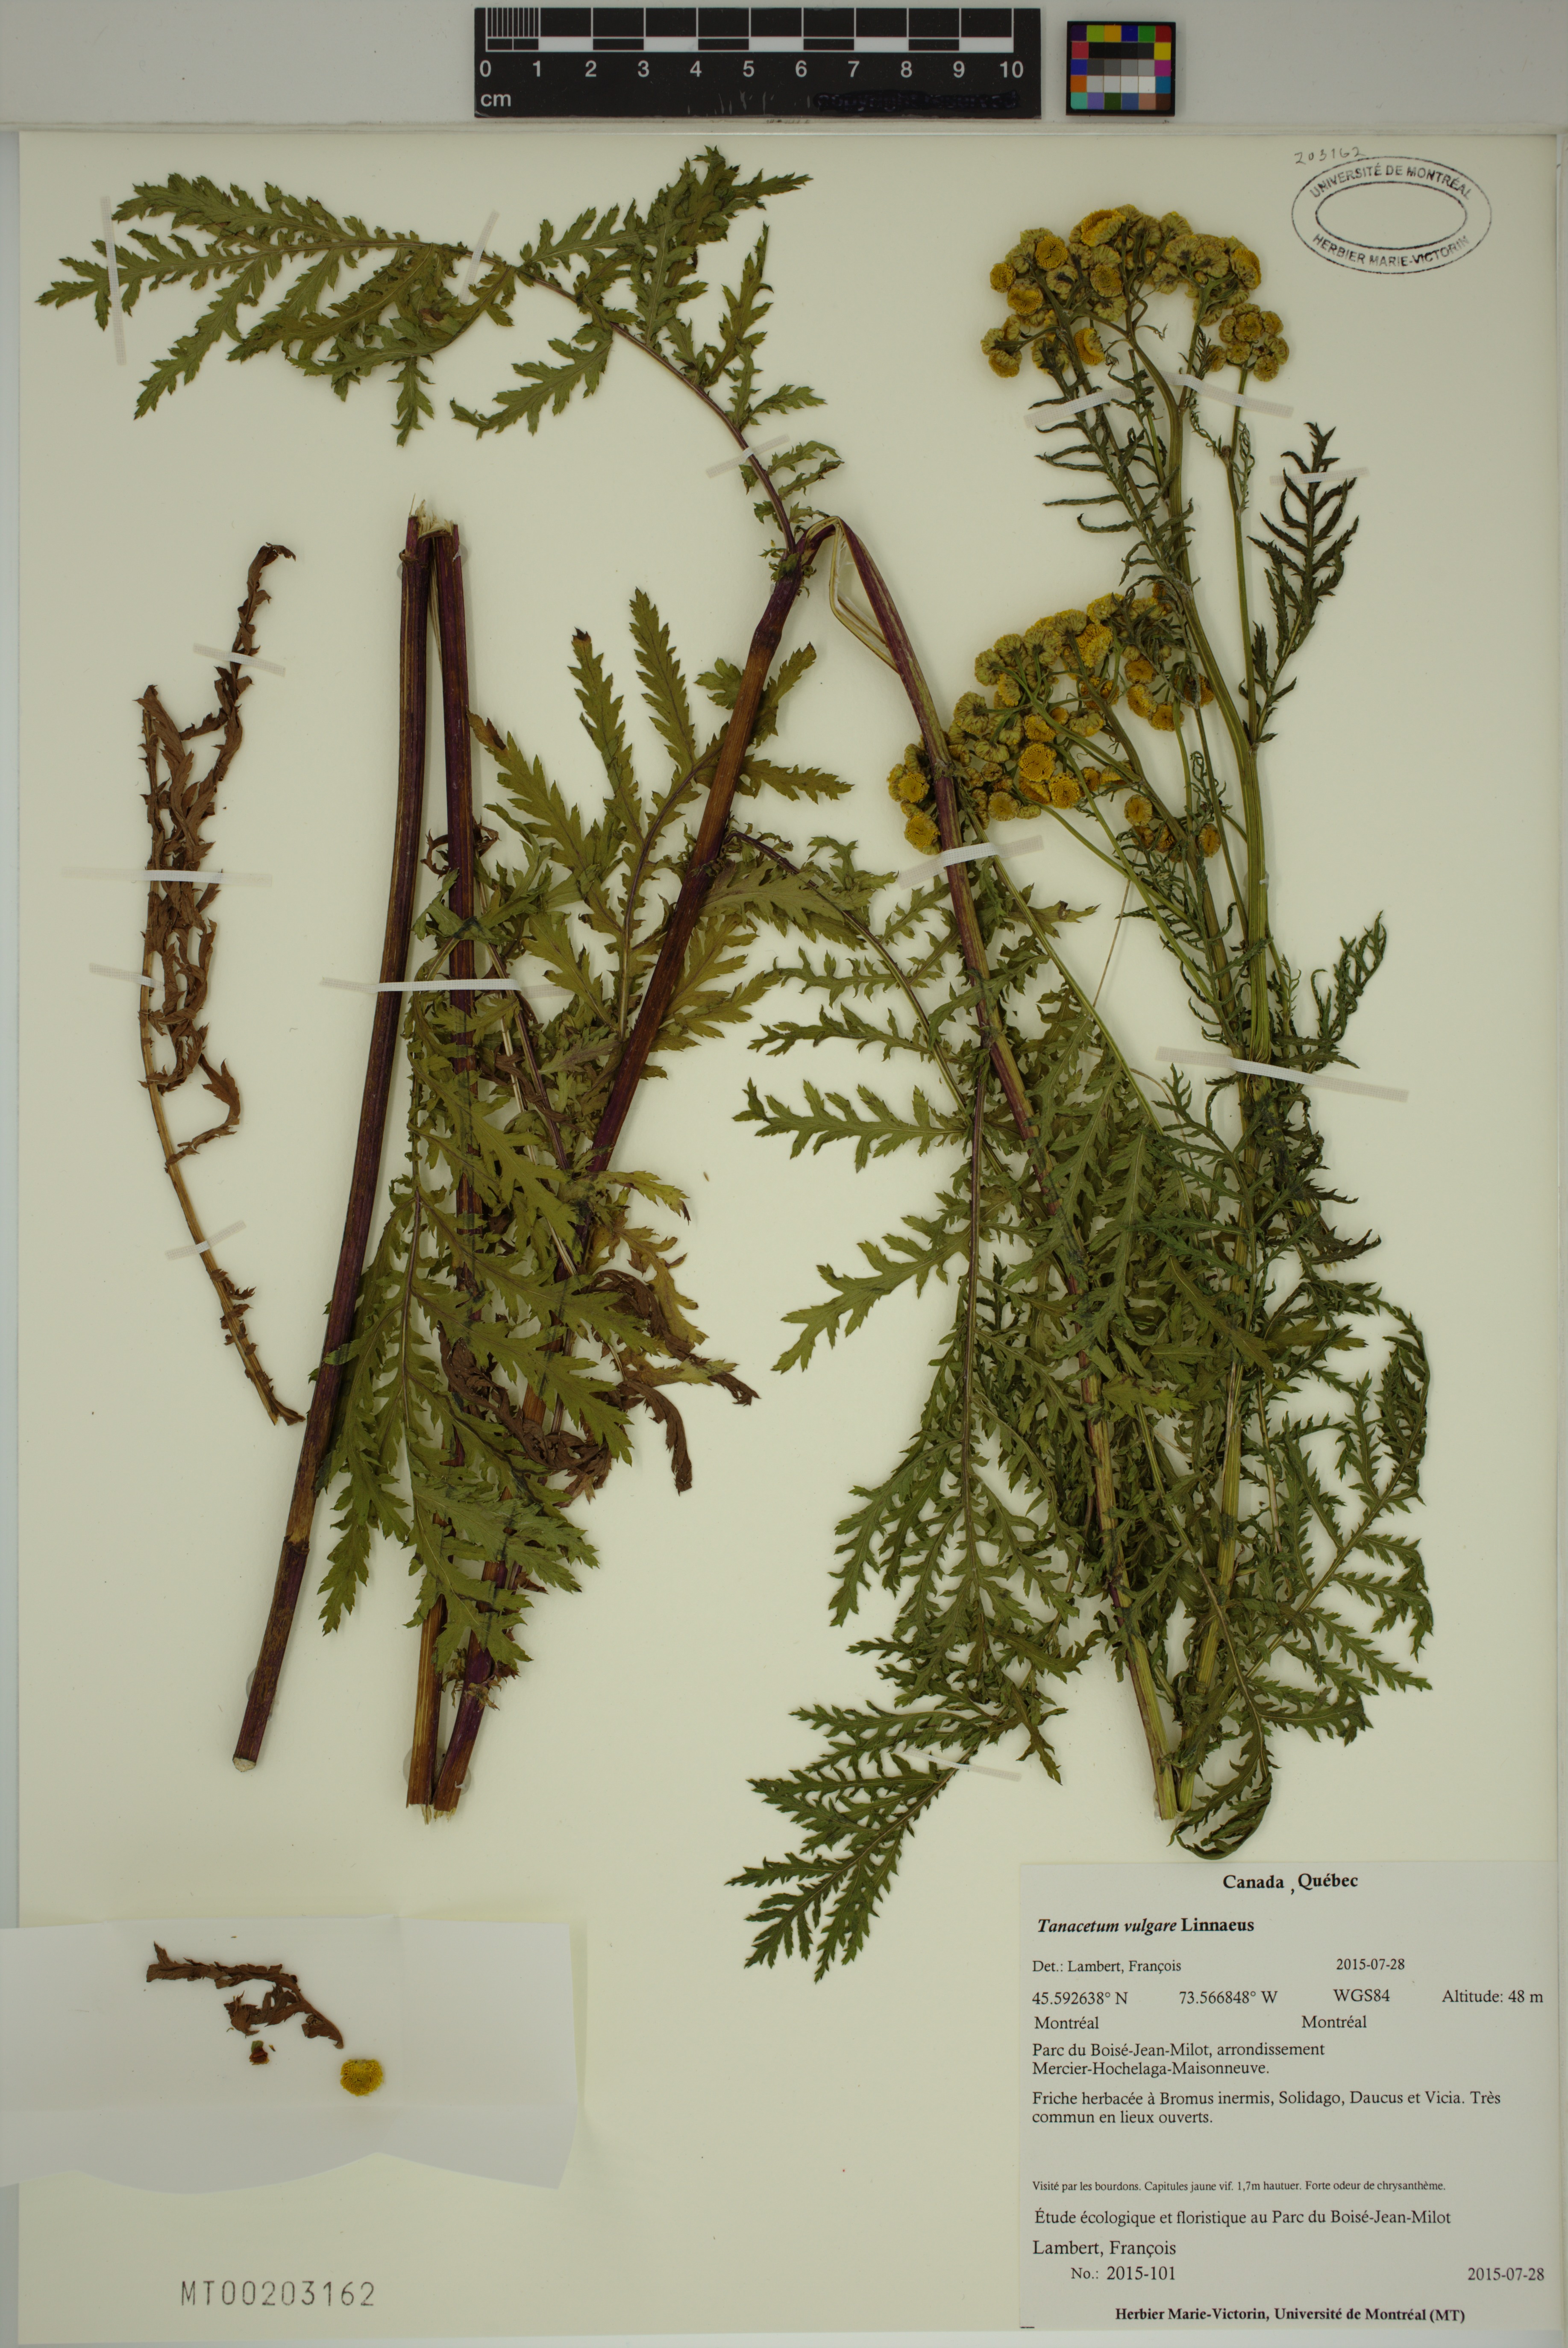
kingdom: Plantae
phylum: Tracheophyta
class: Magnoliopsida
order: Asterales
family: Asteraceae
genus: Tanacetum
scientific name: Tanacetum vulgare
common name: Common tansy
